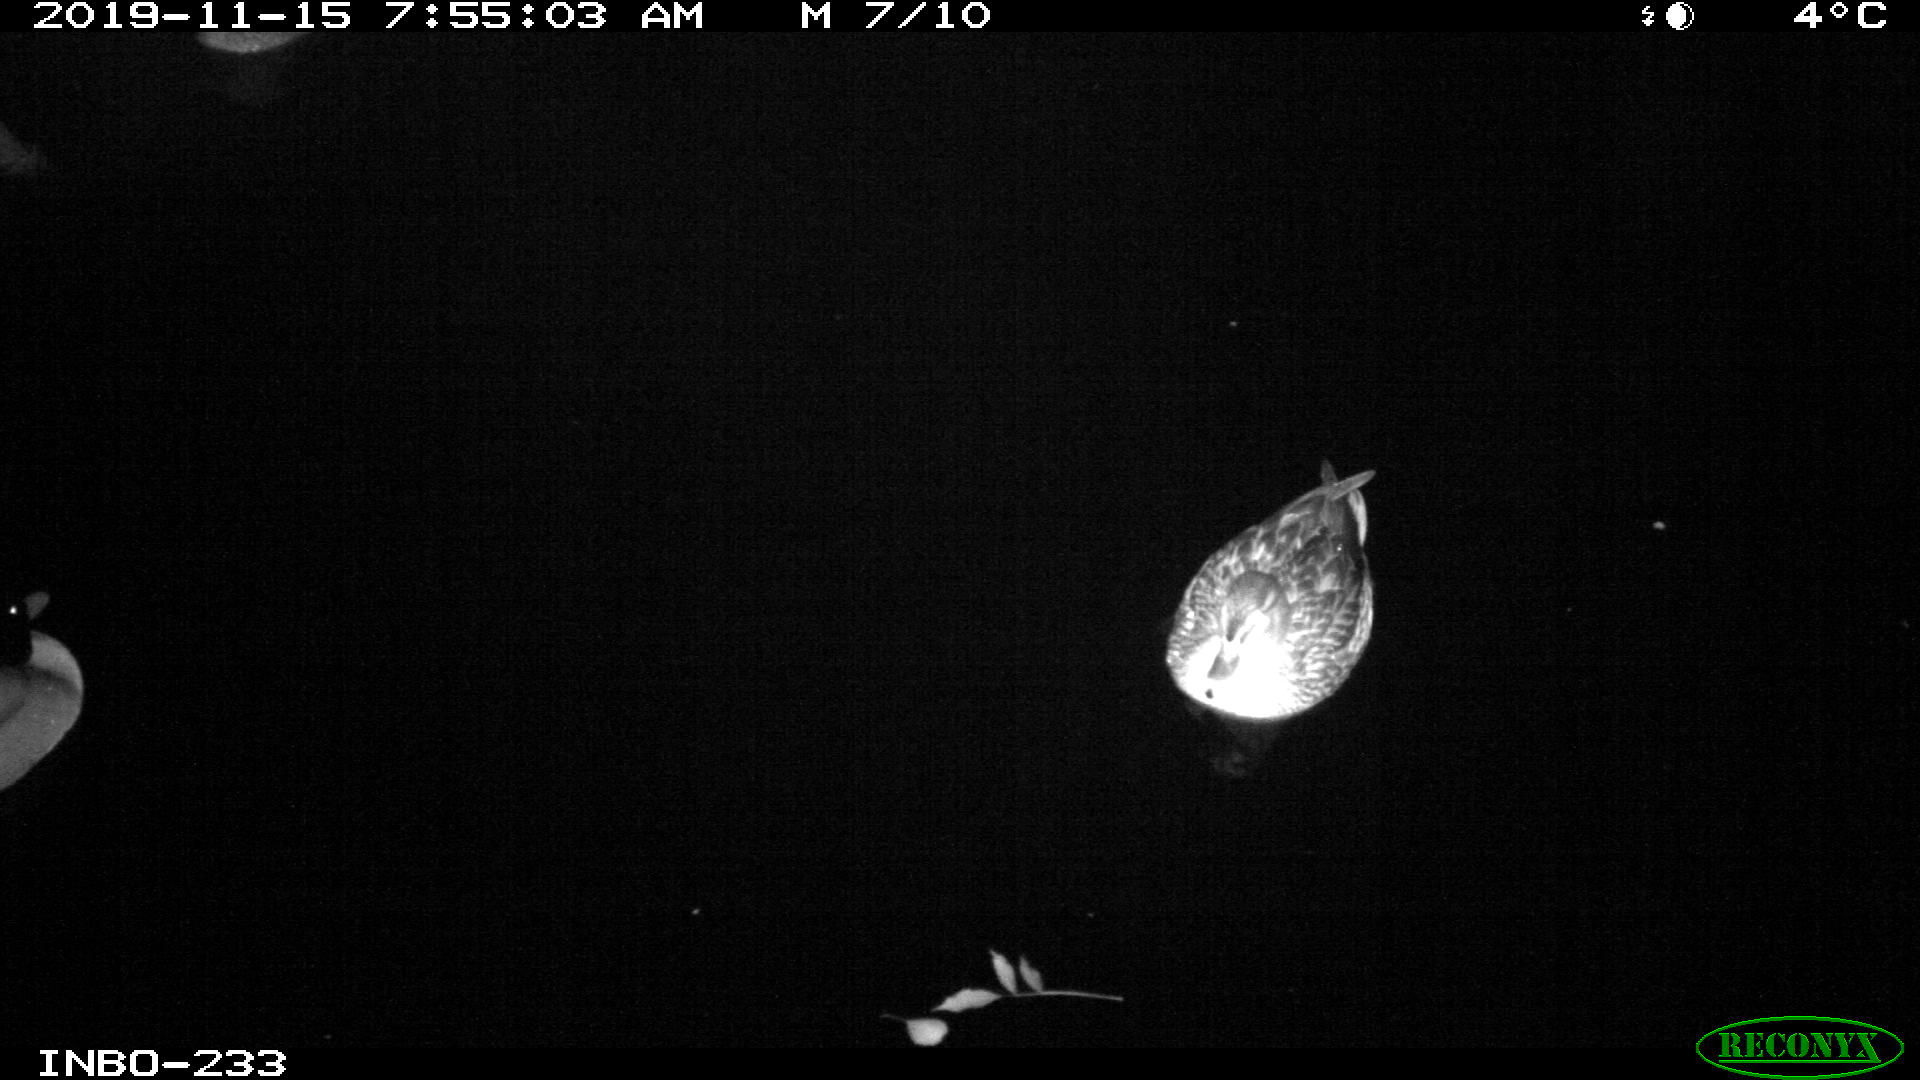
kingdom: Animalia
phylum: Chordata
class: Aves
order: Anseriformes
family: Anatidae
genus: Anas
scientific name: Anas platyrhynchos
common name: Mallard
